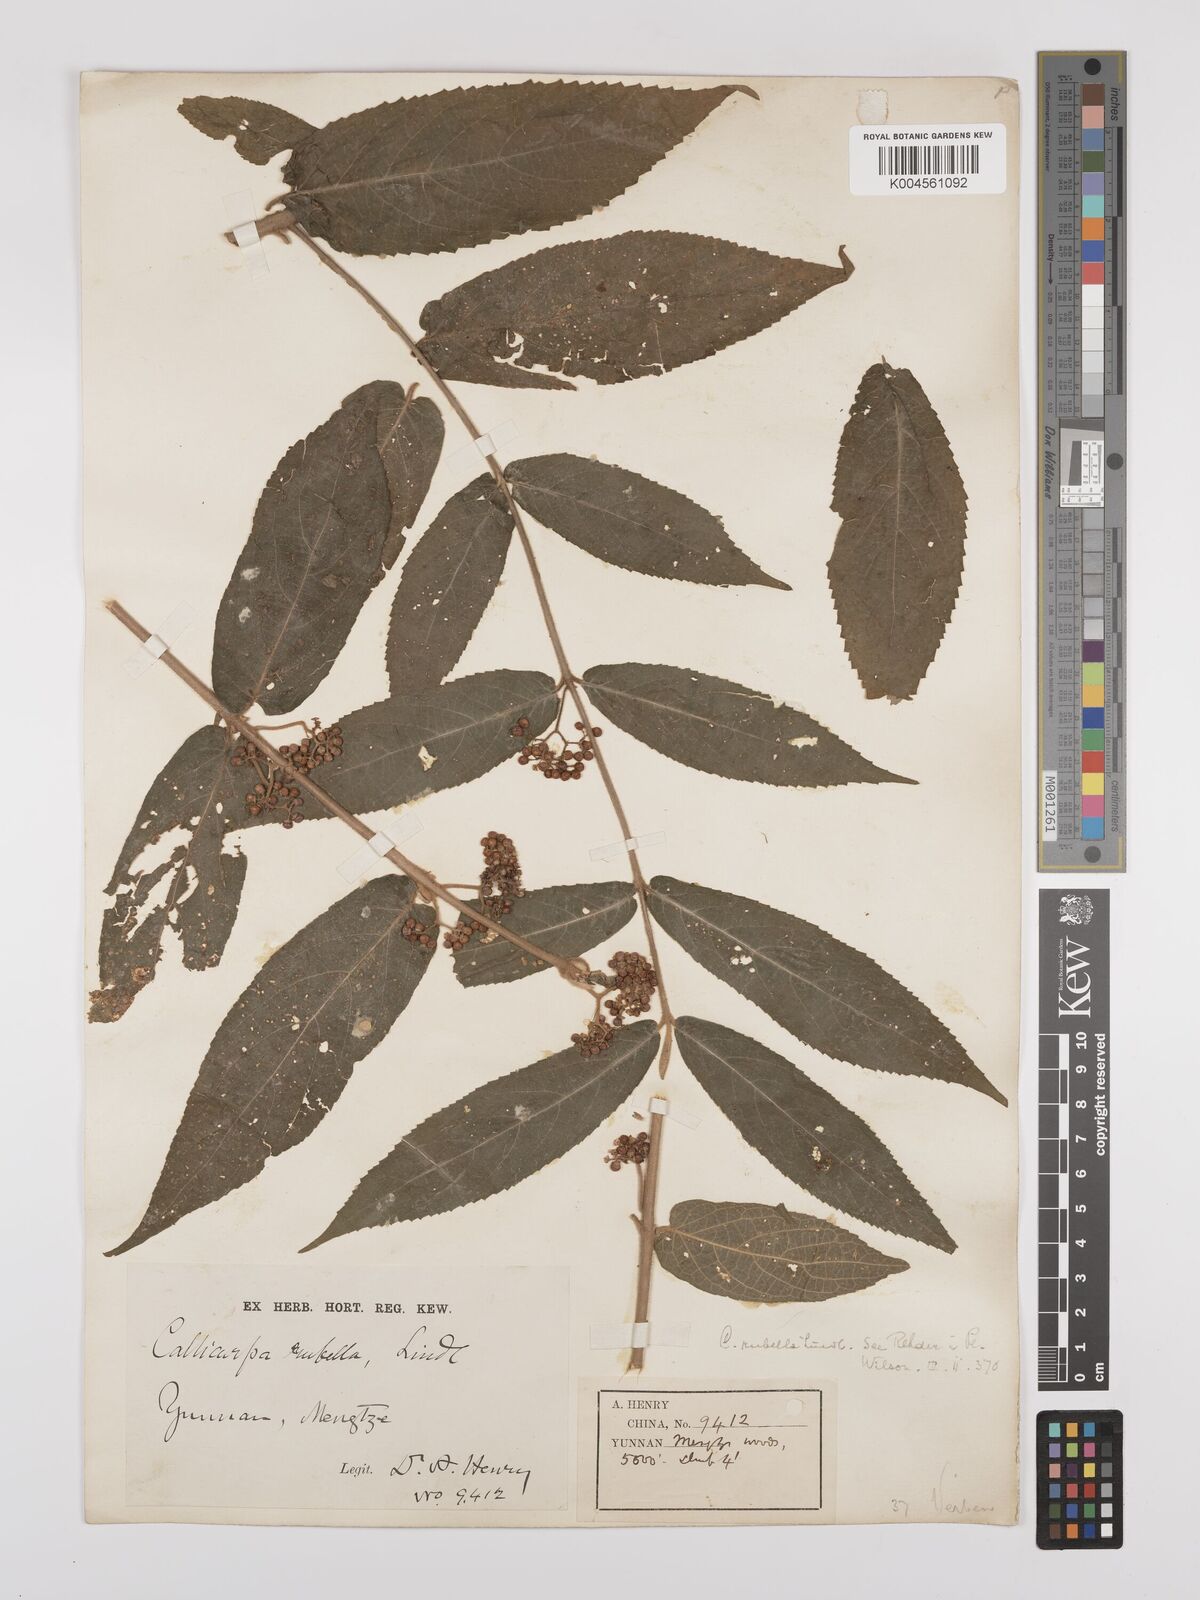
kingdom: Plantae
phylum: Tracheophyta
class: Magnoliopsida
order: Lamiales
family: Lamiaceae
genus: Callicarpa
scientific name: Callicarpa rubella
